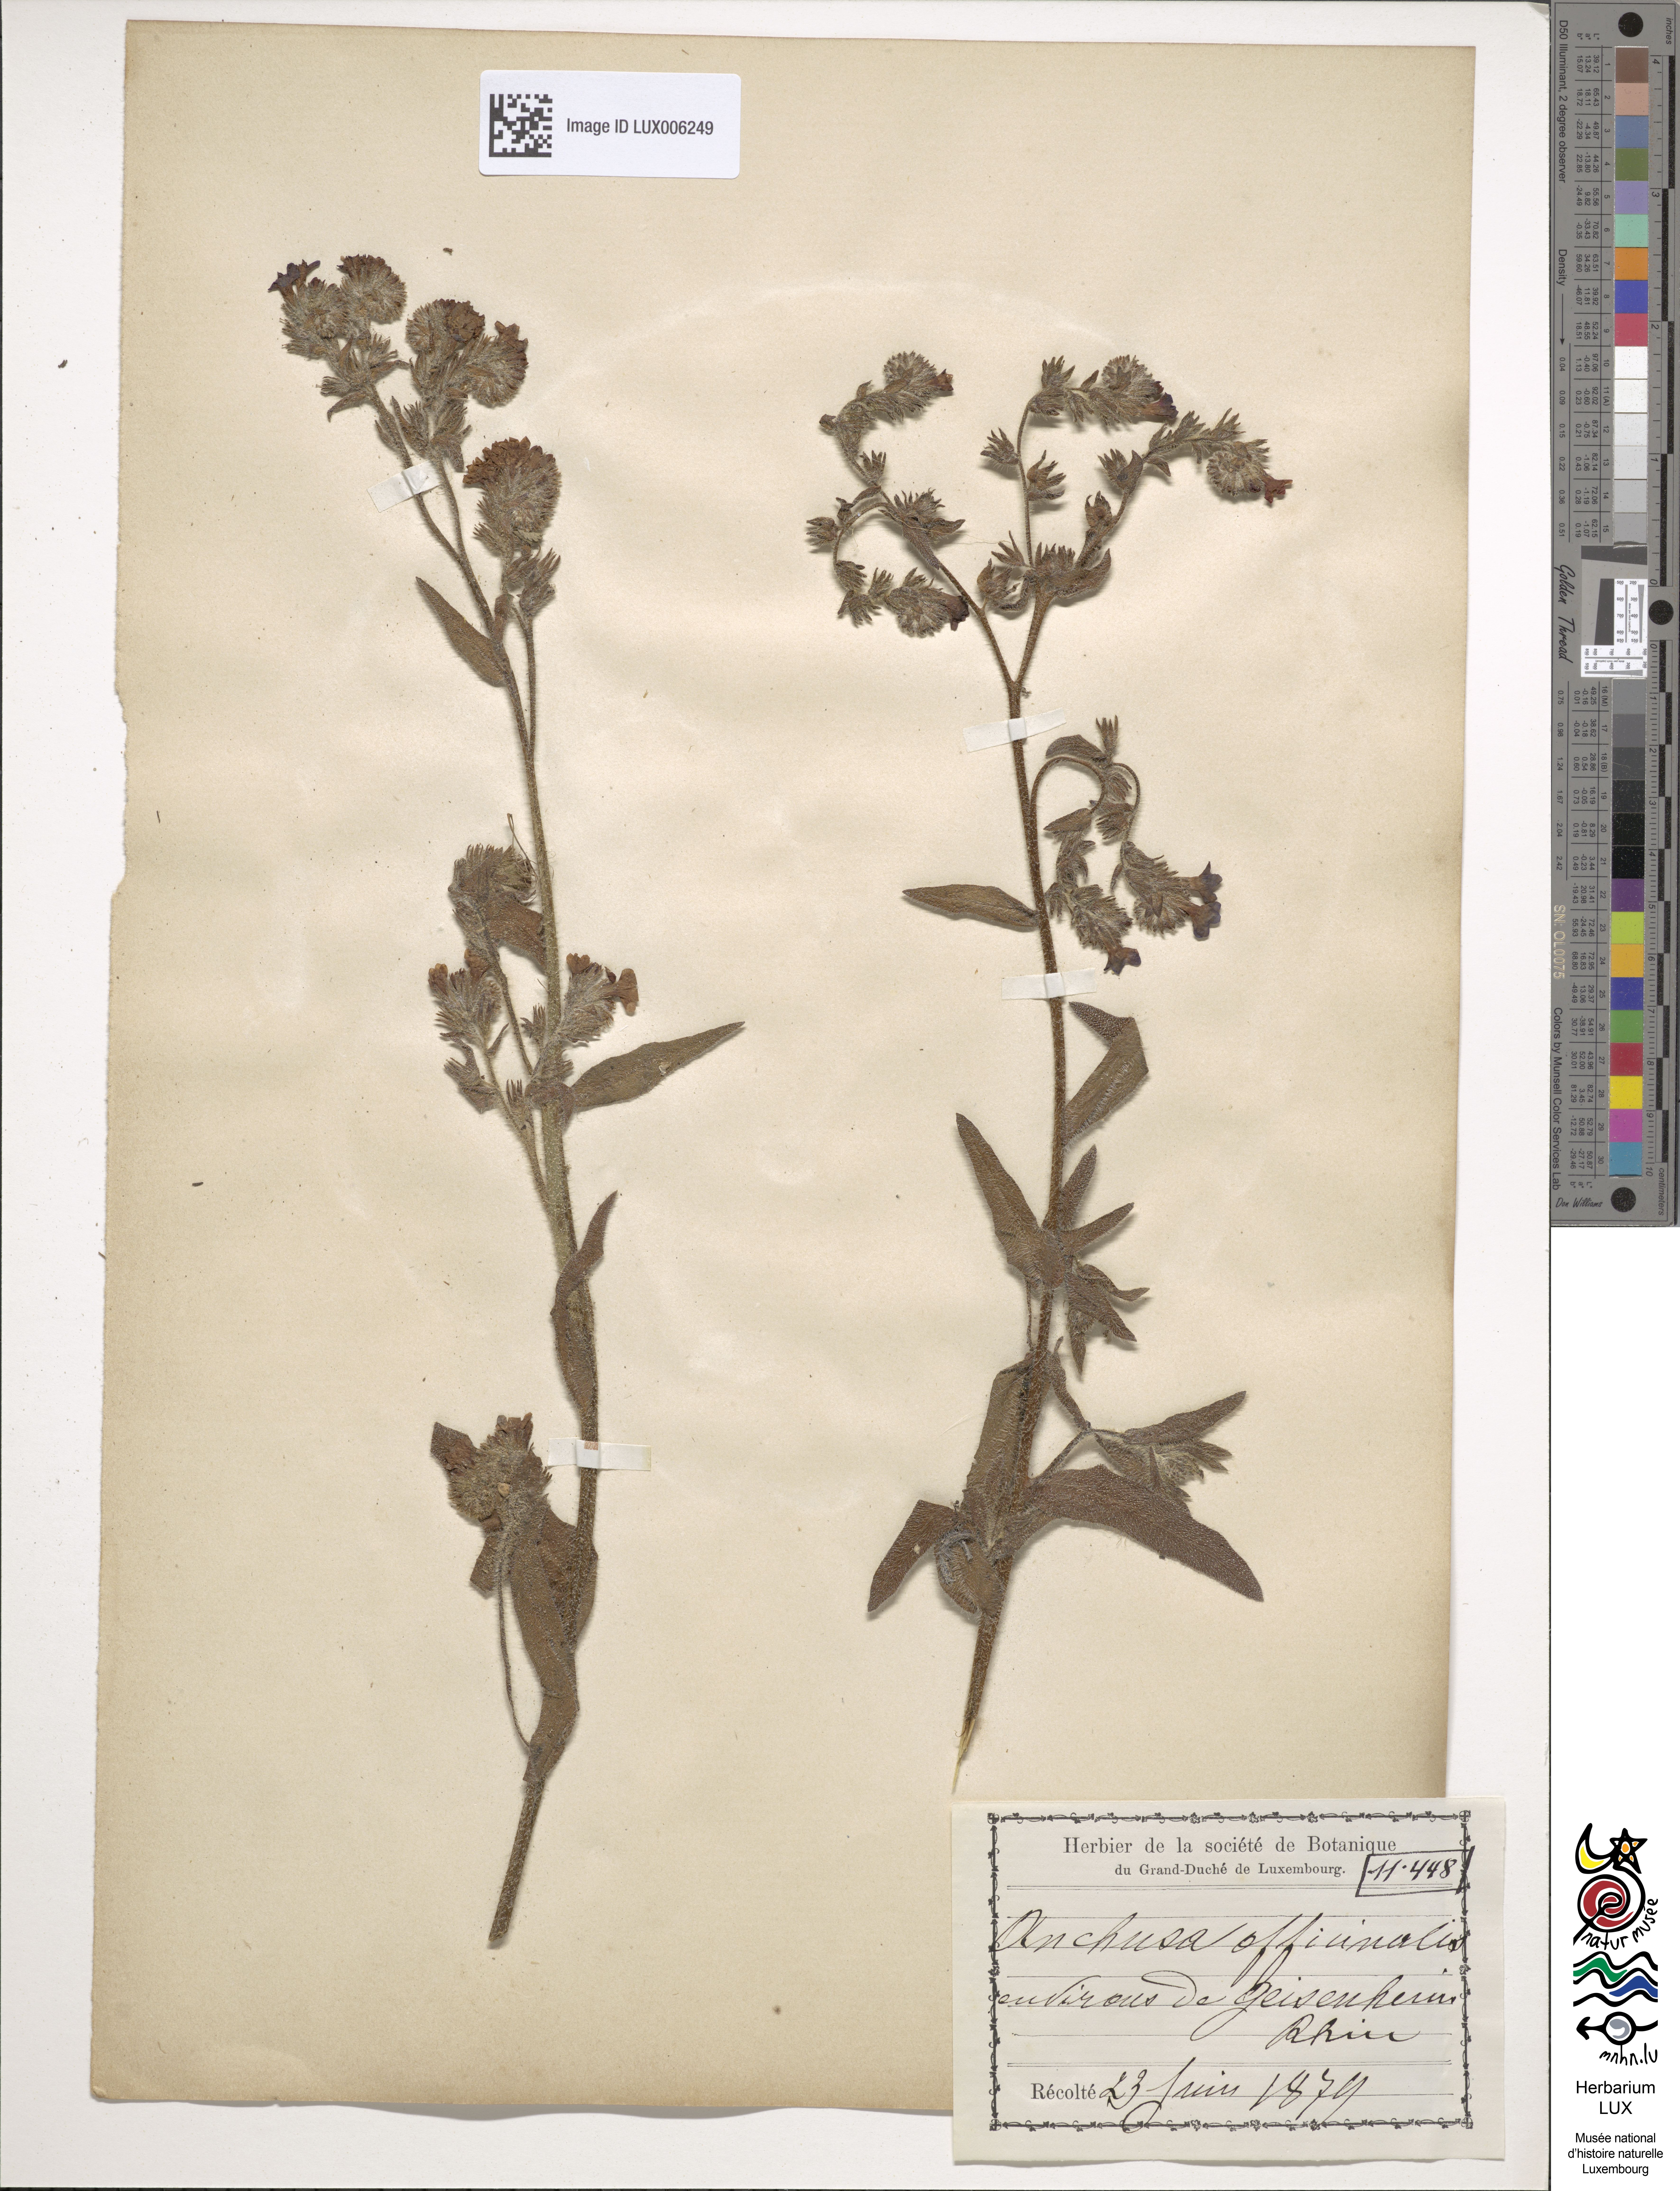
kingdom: Plantae
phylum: Tracheophyta
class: Magnoliopsida
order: Boraginales
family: Boraginaceae
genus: Anchusa
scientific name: Anchusa officinalis
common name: Alkanet
